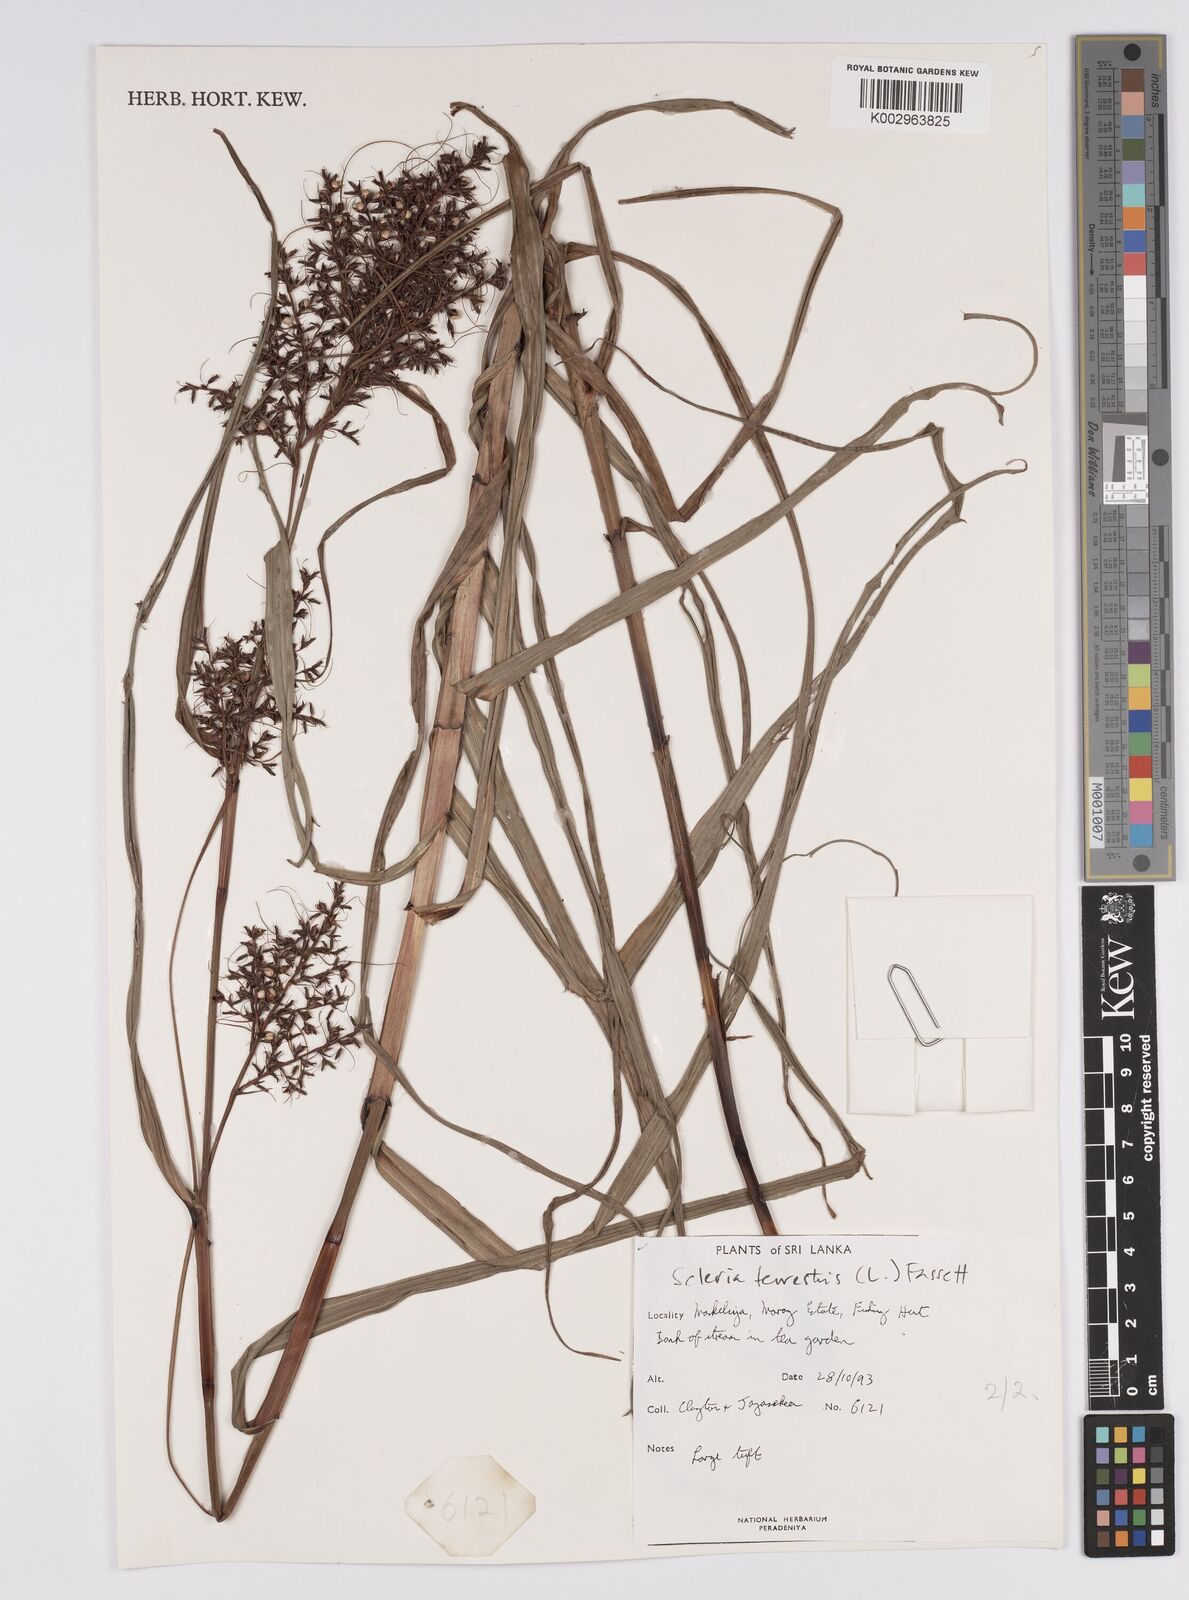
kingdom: Plantae
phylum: Tracheophyta
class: Liliopsida
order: Poales
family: Cyperaceae
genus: Scleria
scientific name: Scleria terrestris
